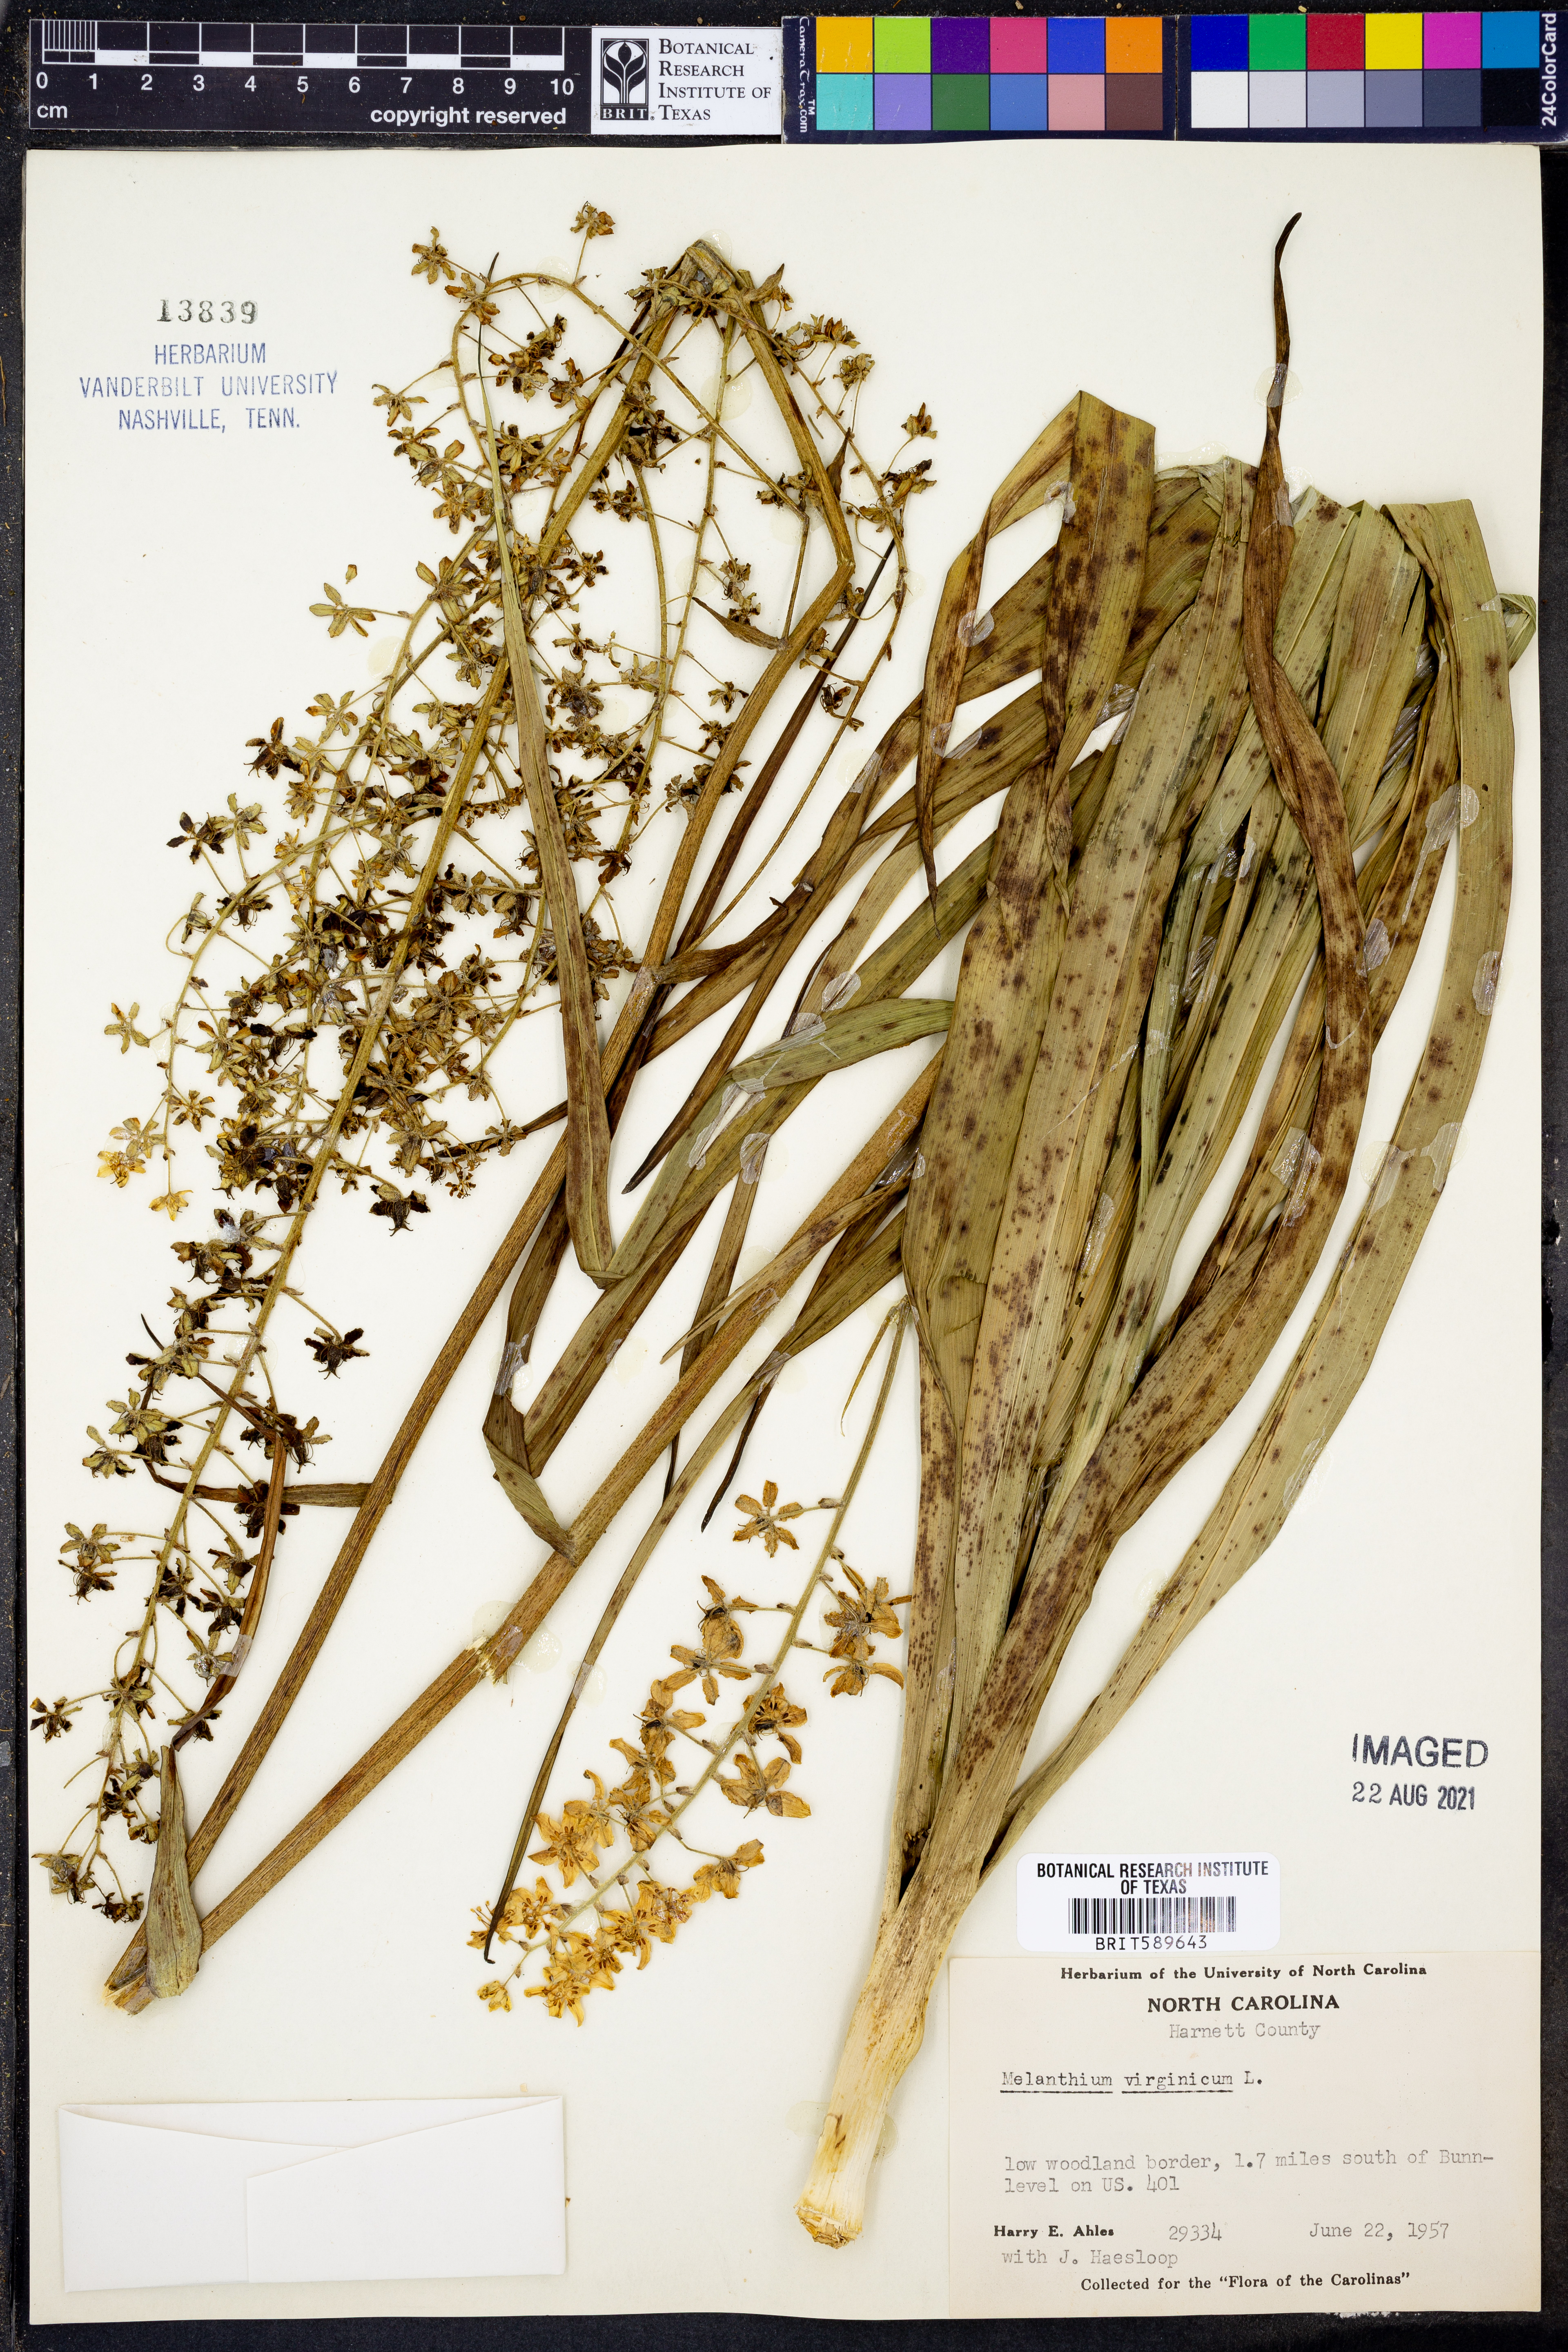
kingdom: Plantae
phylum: Tracheophyta
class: Liliopsida
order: Liliales
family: Melanthiaceae
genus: Melanthium
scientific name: Melanthium virginicum
